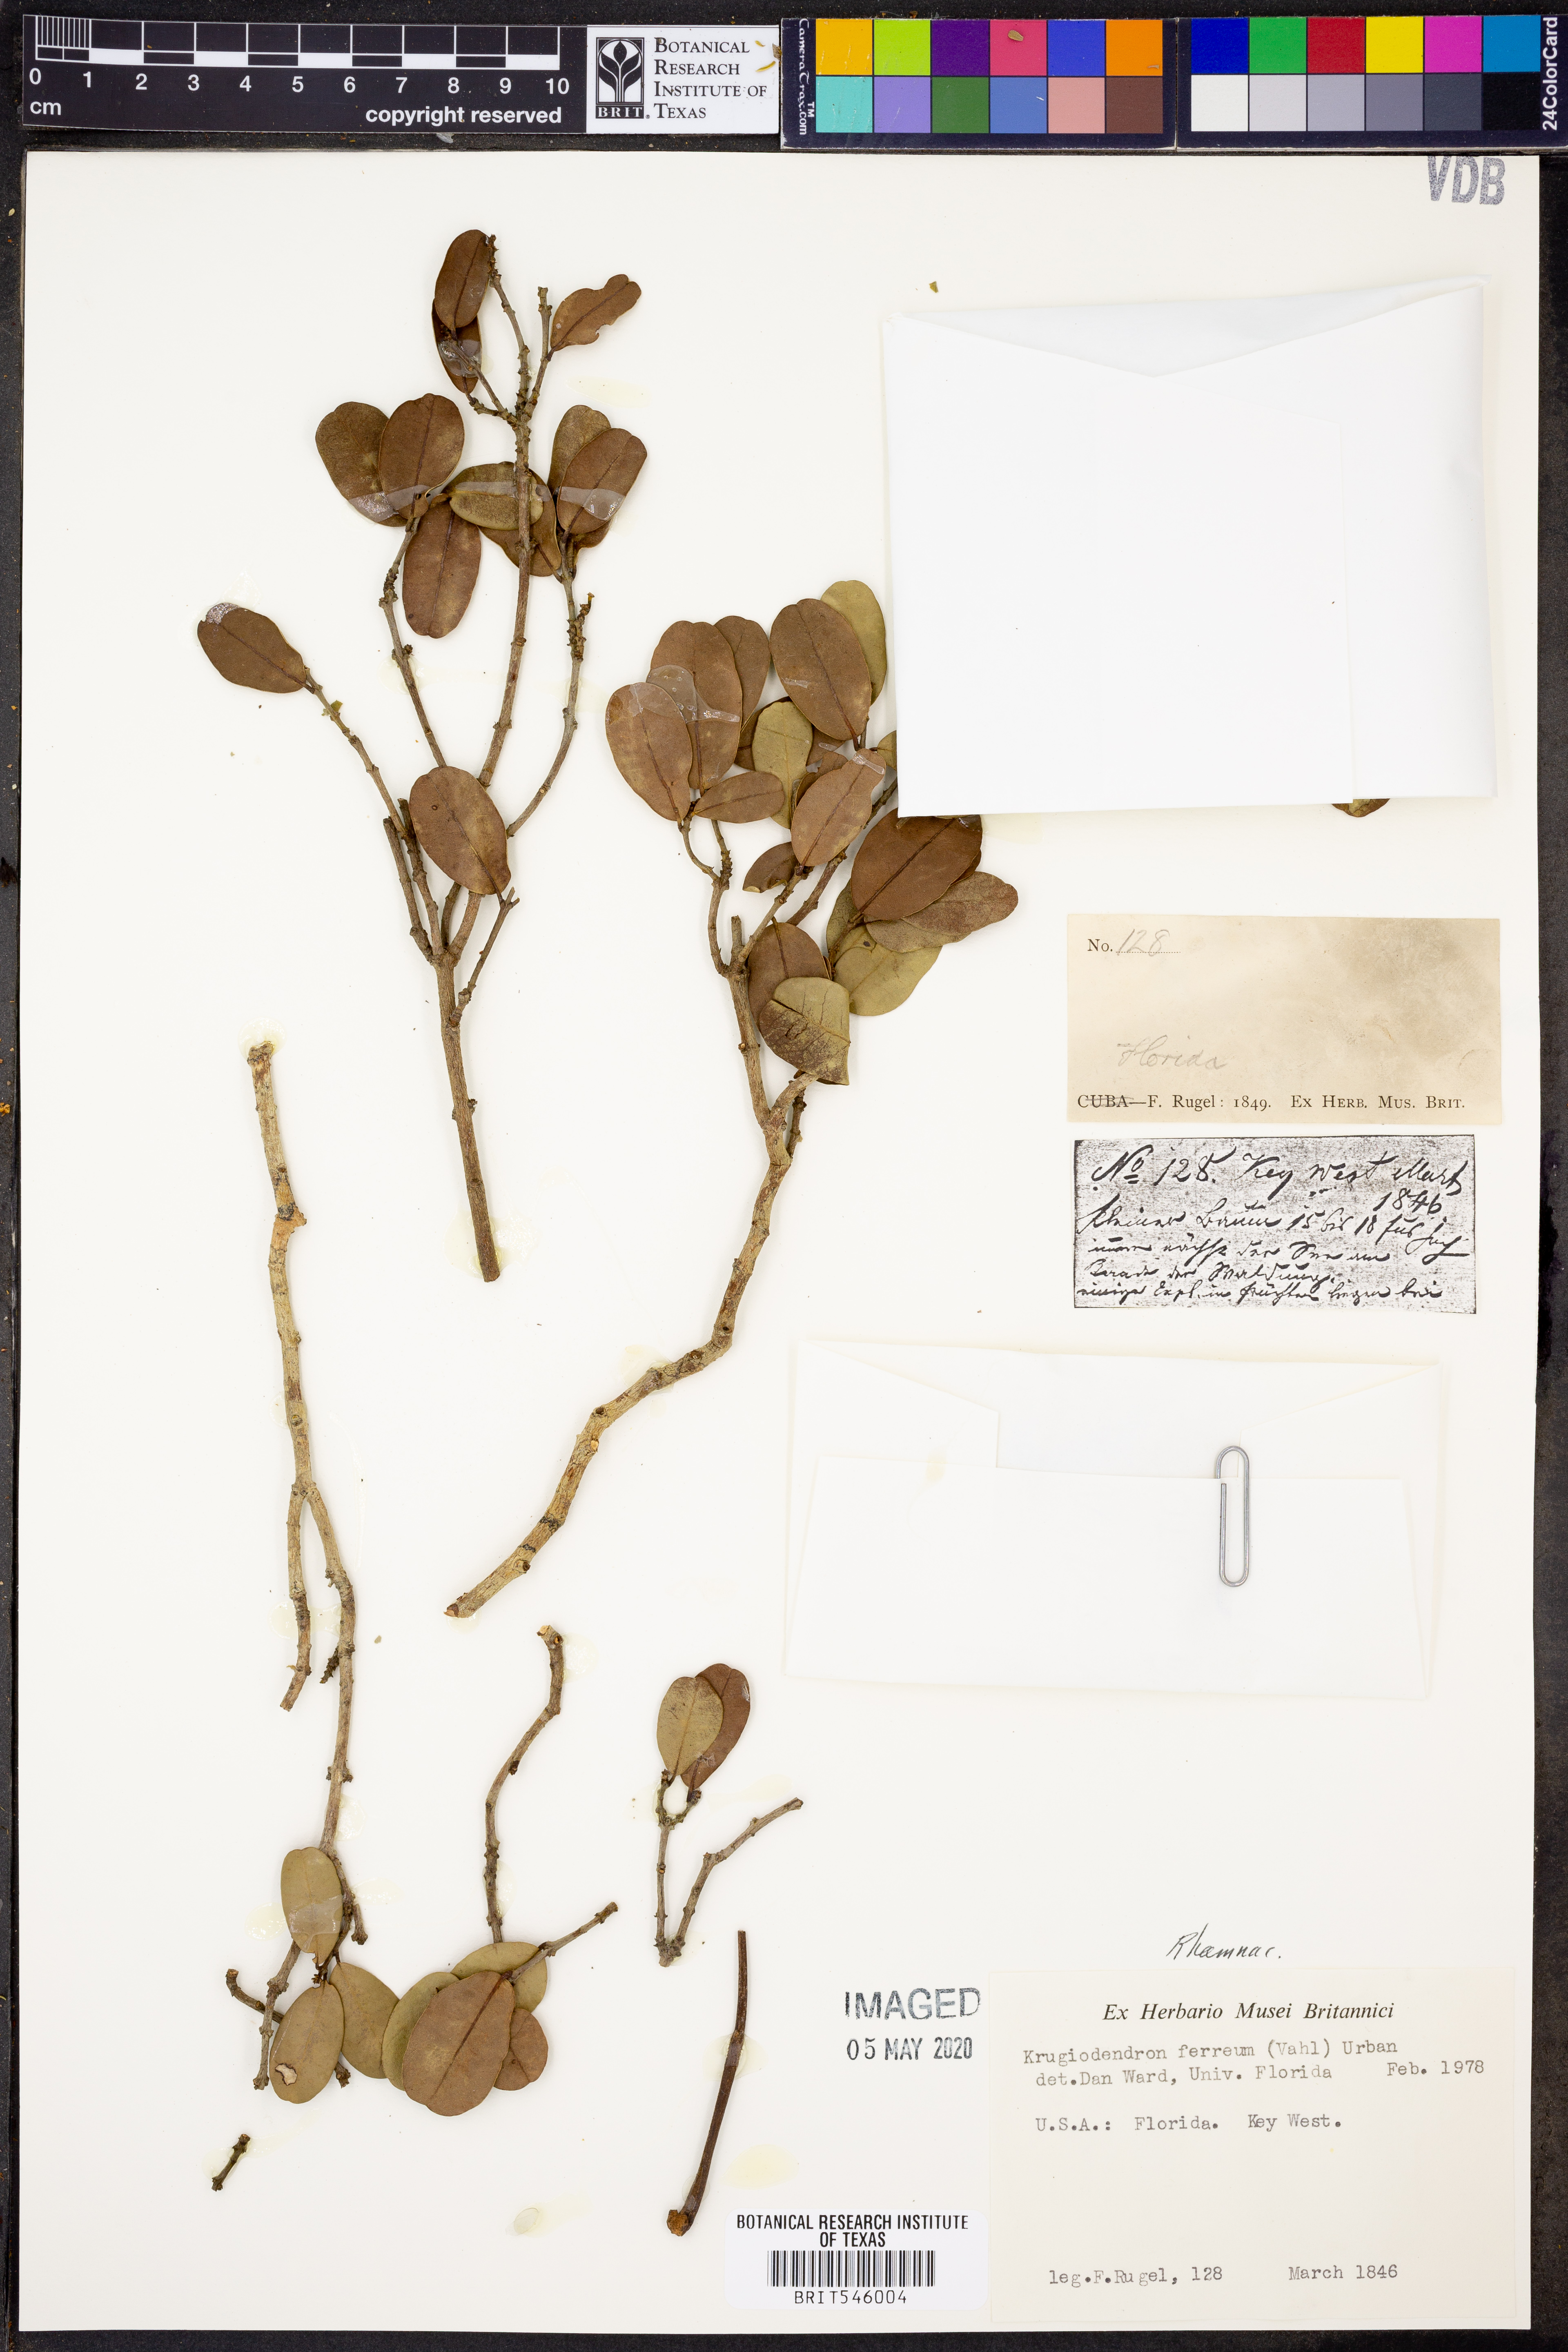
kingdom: Plantae
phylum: Tracheophyta
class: Magnoliopsida
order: Rosales
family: Rhamnaceae
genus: Krugiodendron
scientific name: Krugiodendron ferreum
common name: Iron wood
